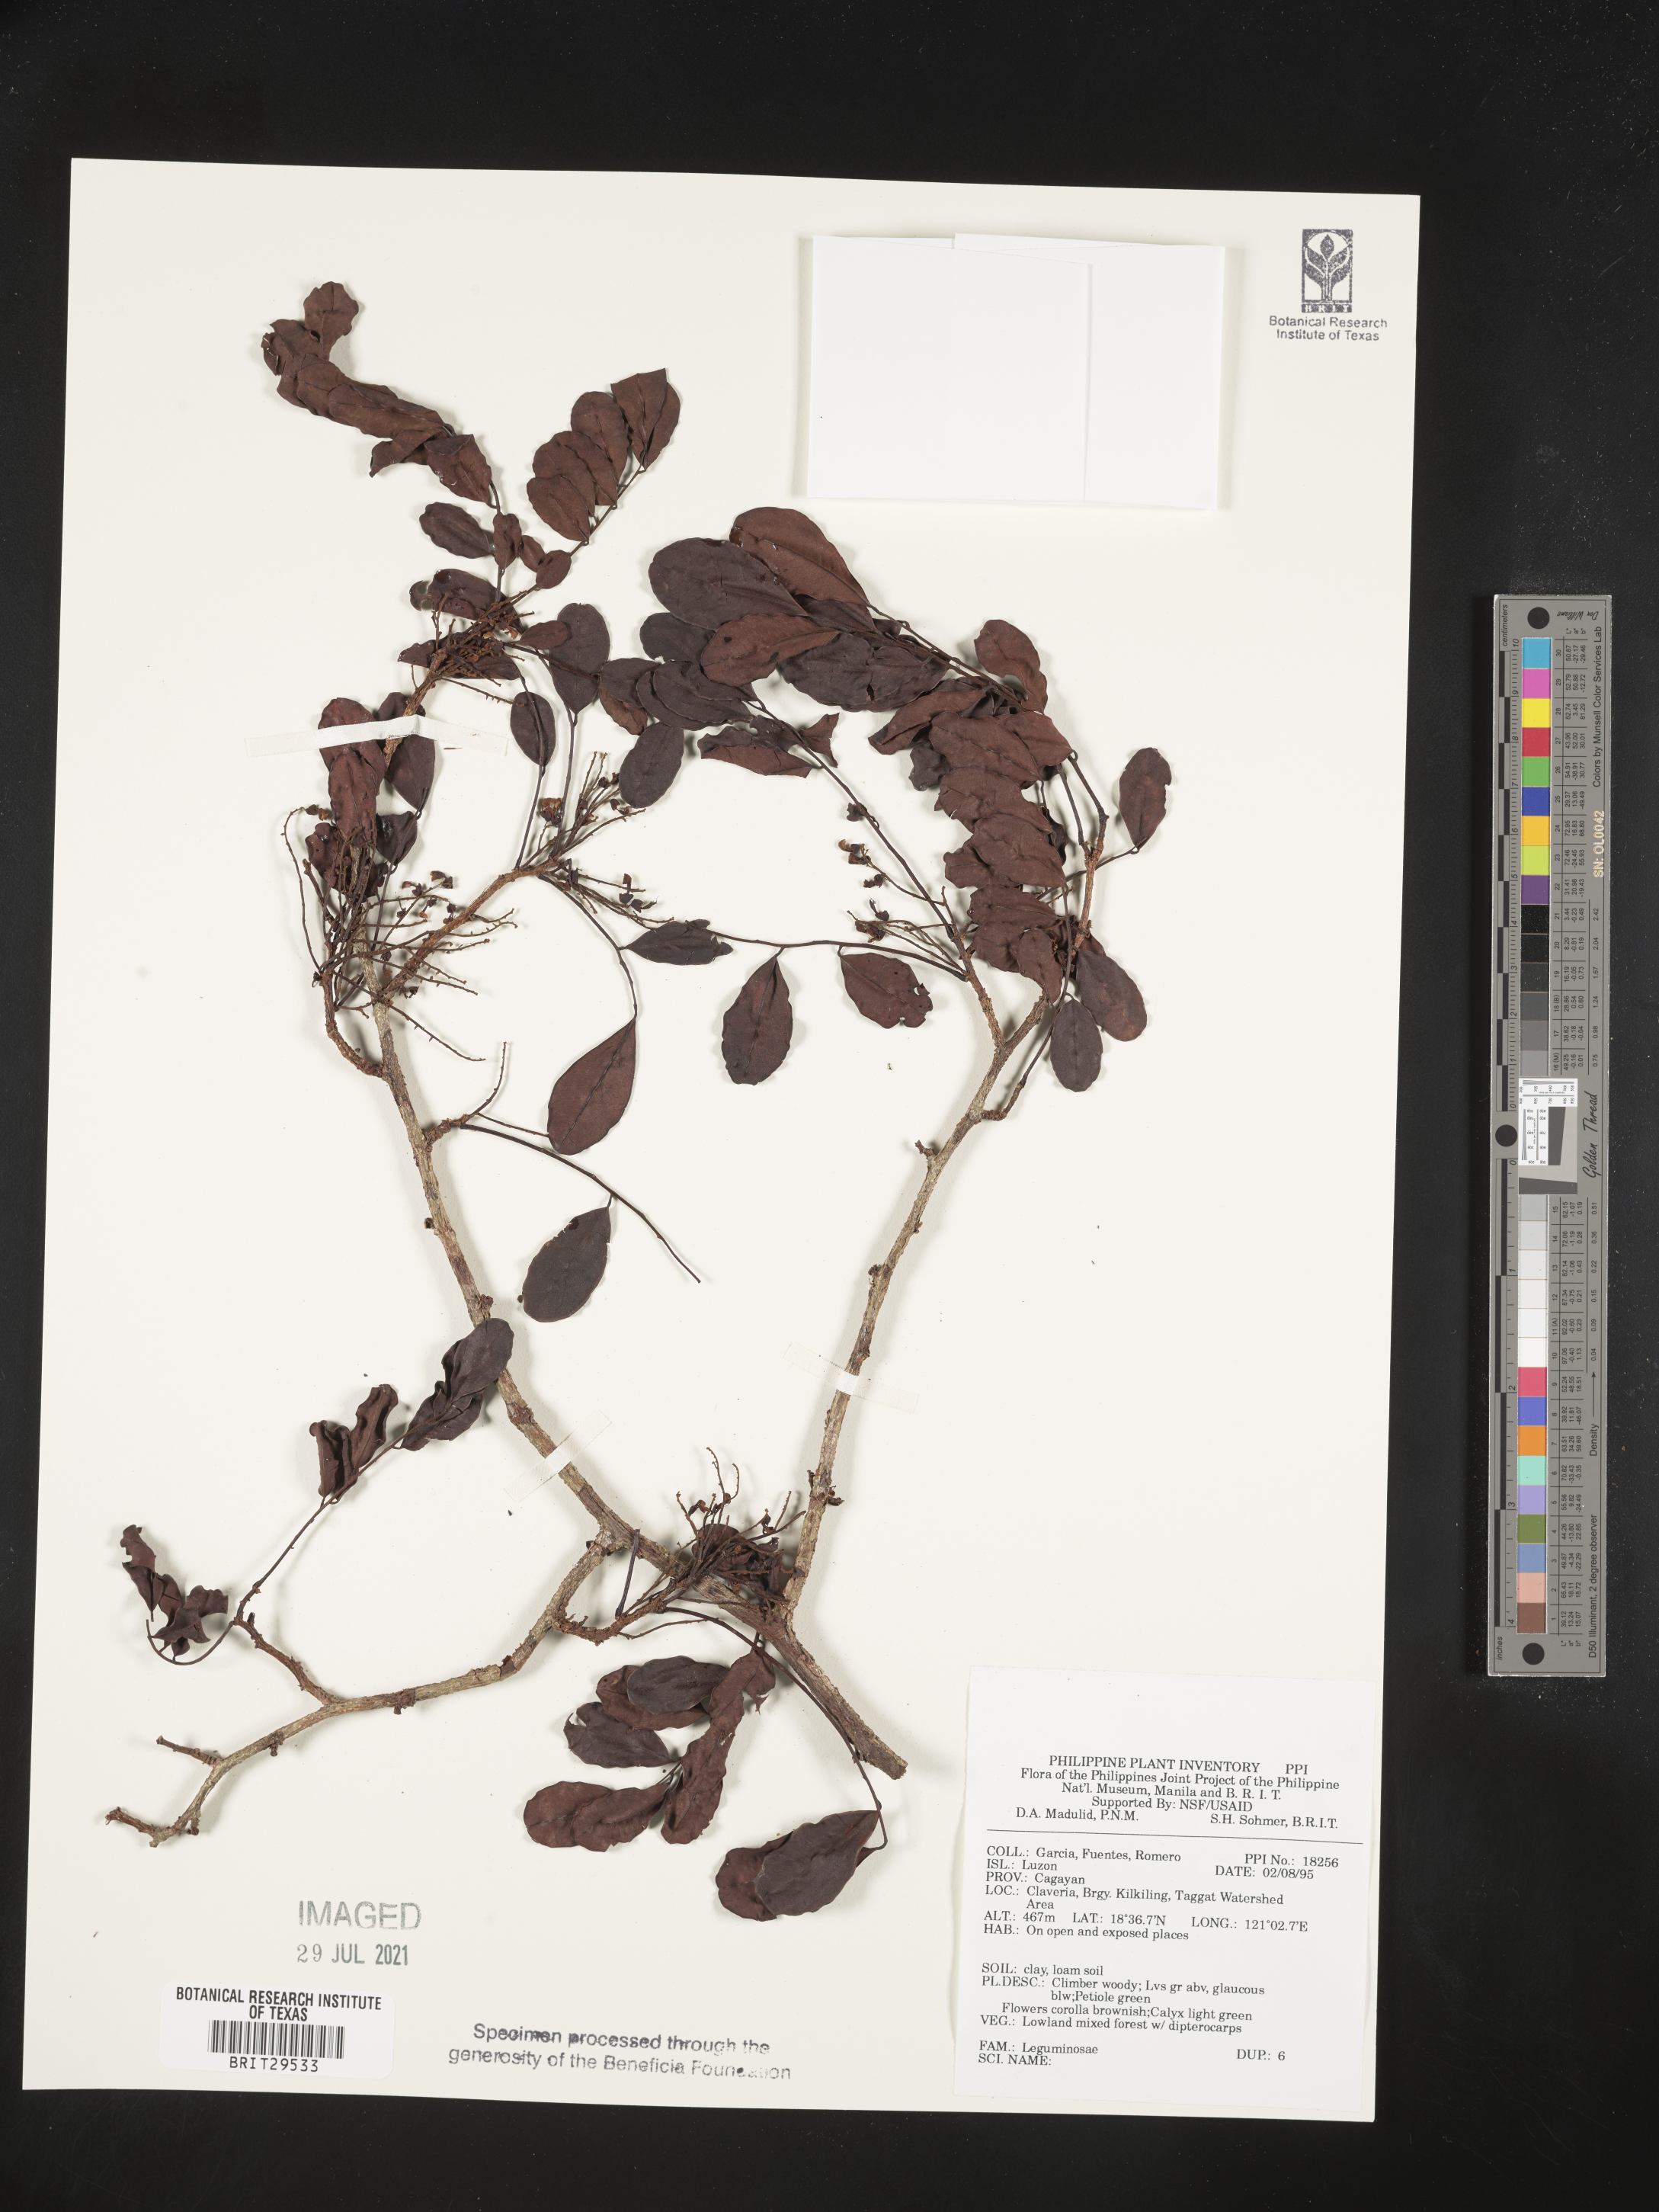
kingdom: Plantae
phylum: Tracheophyta
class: Magnoliopsida
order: Fabales
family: Fabaceae
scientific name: Fabaceae
